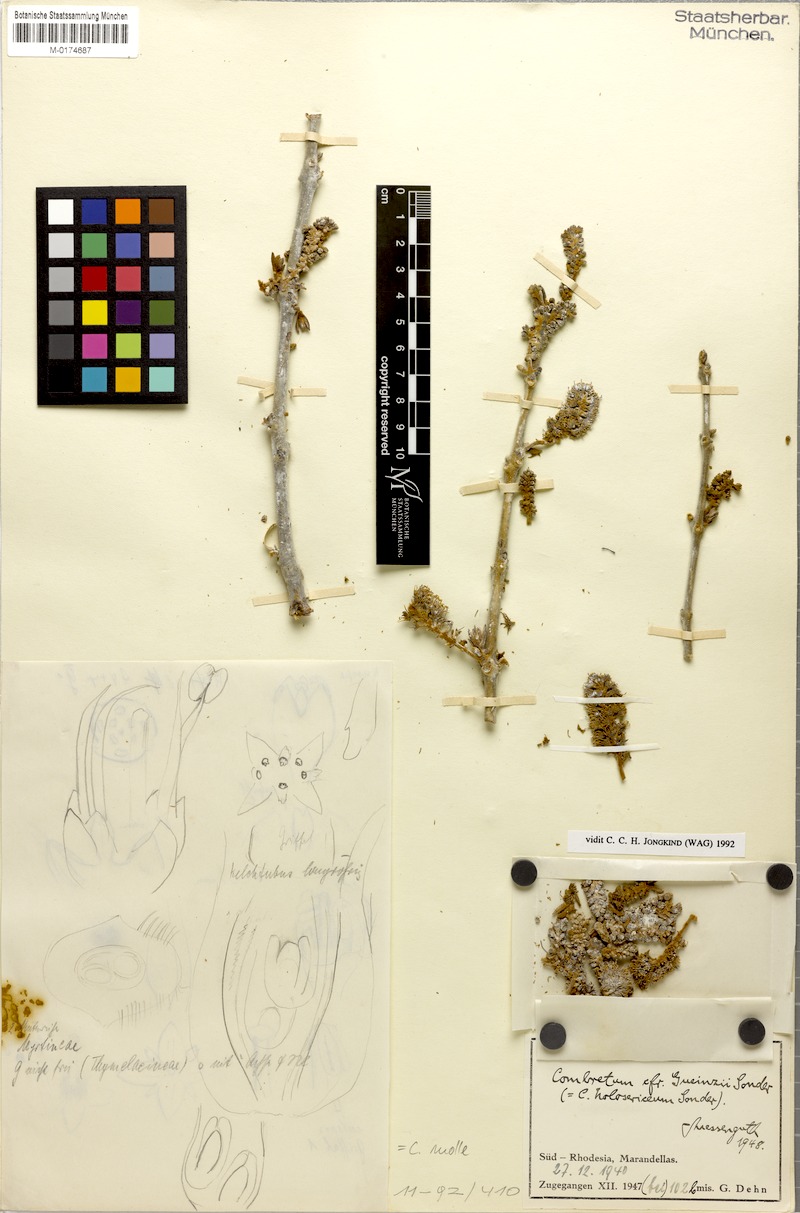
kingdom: Plantae
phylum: Tracheophyta
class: Magnoliopsida
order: Myrtales
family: Combretaceae
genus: Combretum
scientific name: Combretum molle
